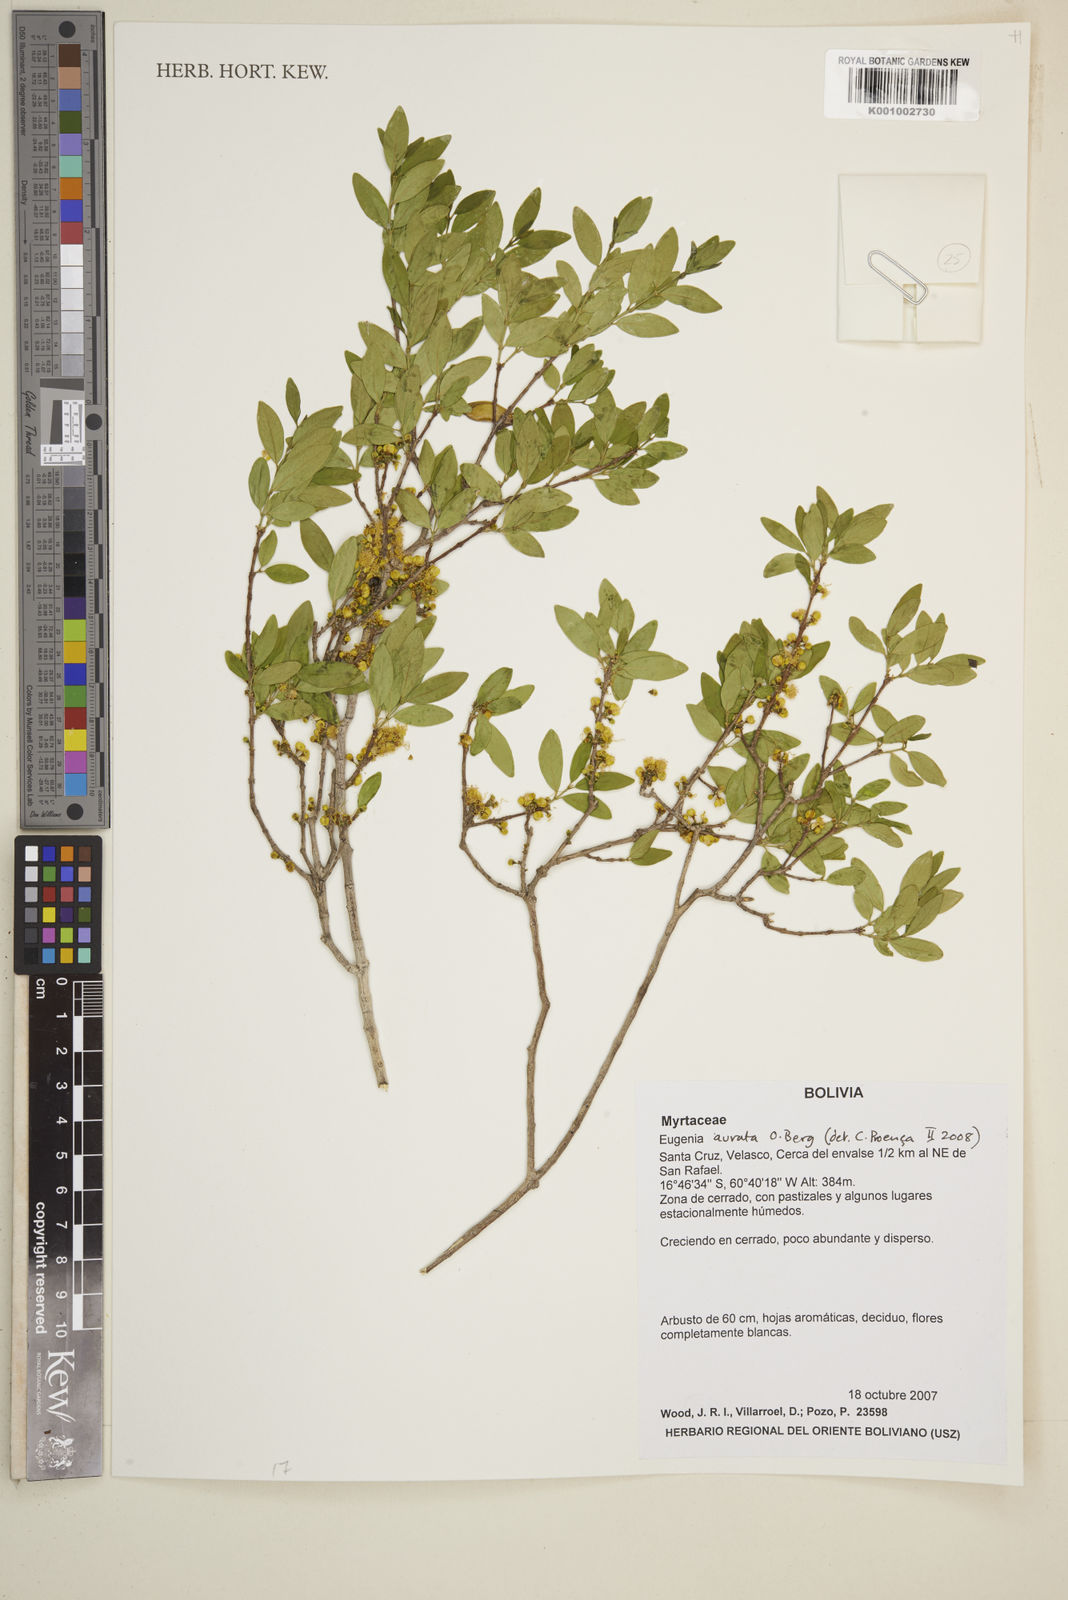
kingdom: Plantae
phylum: Tracheophyta
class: Magnoliopsida
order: Myrtales
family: Myrtaceae
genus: Eugenia
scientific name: Eugenia aurata
